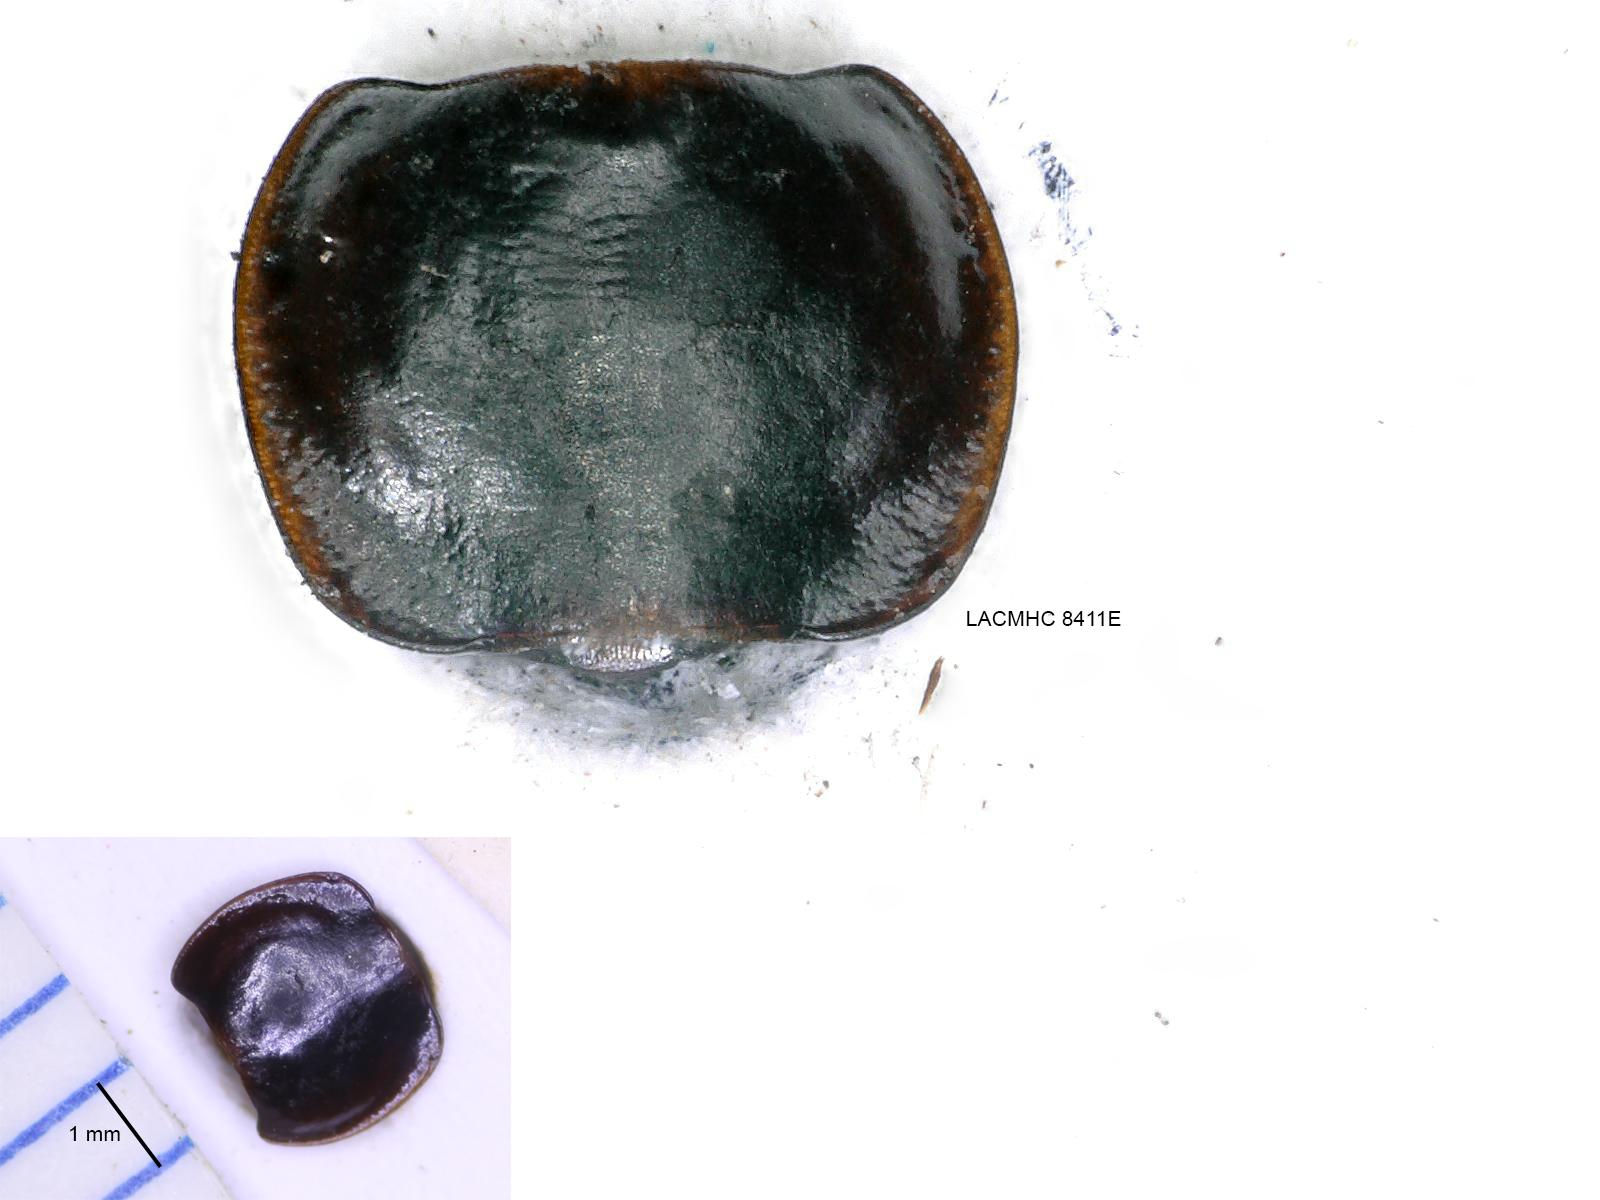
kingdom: Animalia
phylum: Arthropoda
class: Insecta
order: Coleoptera
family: Carabidae
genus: Tanystoma
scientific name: Tanystoma maculicolle
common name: Tule beetle
